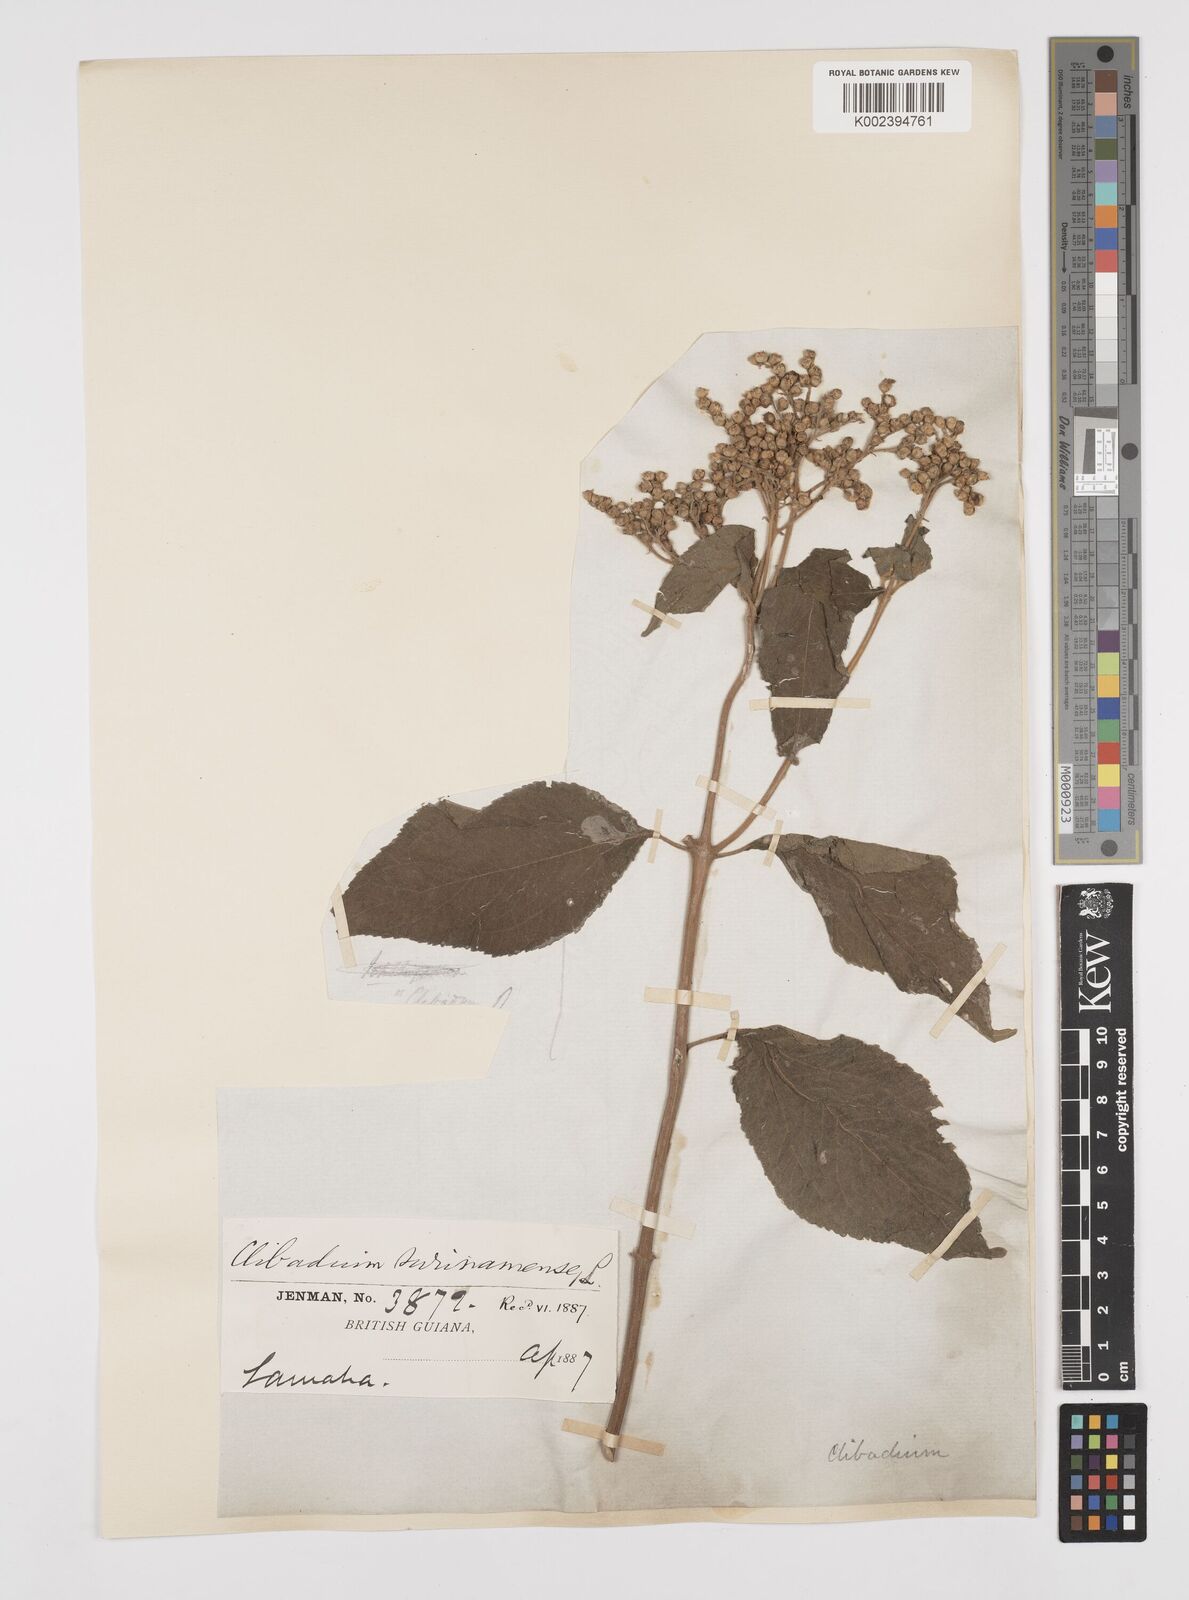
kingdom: Plantae
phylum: Tracheophyta
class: Magnoliopsida
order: Asterales
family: Asteraceae
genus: Clibadium
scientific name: Clibadium surinamense
